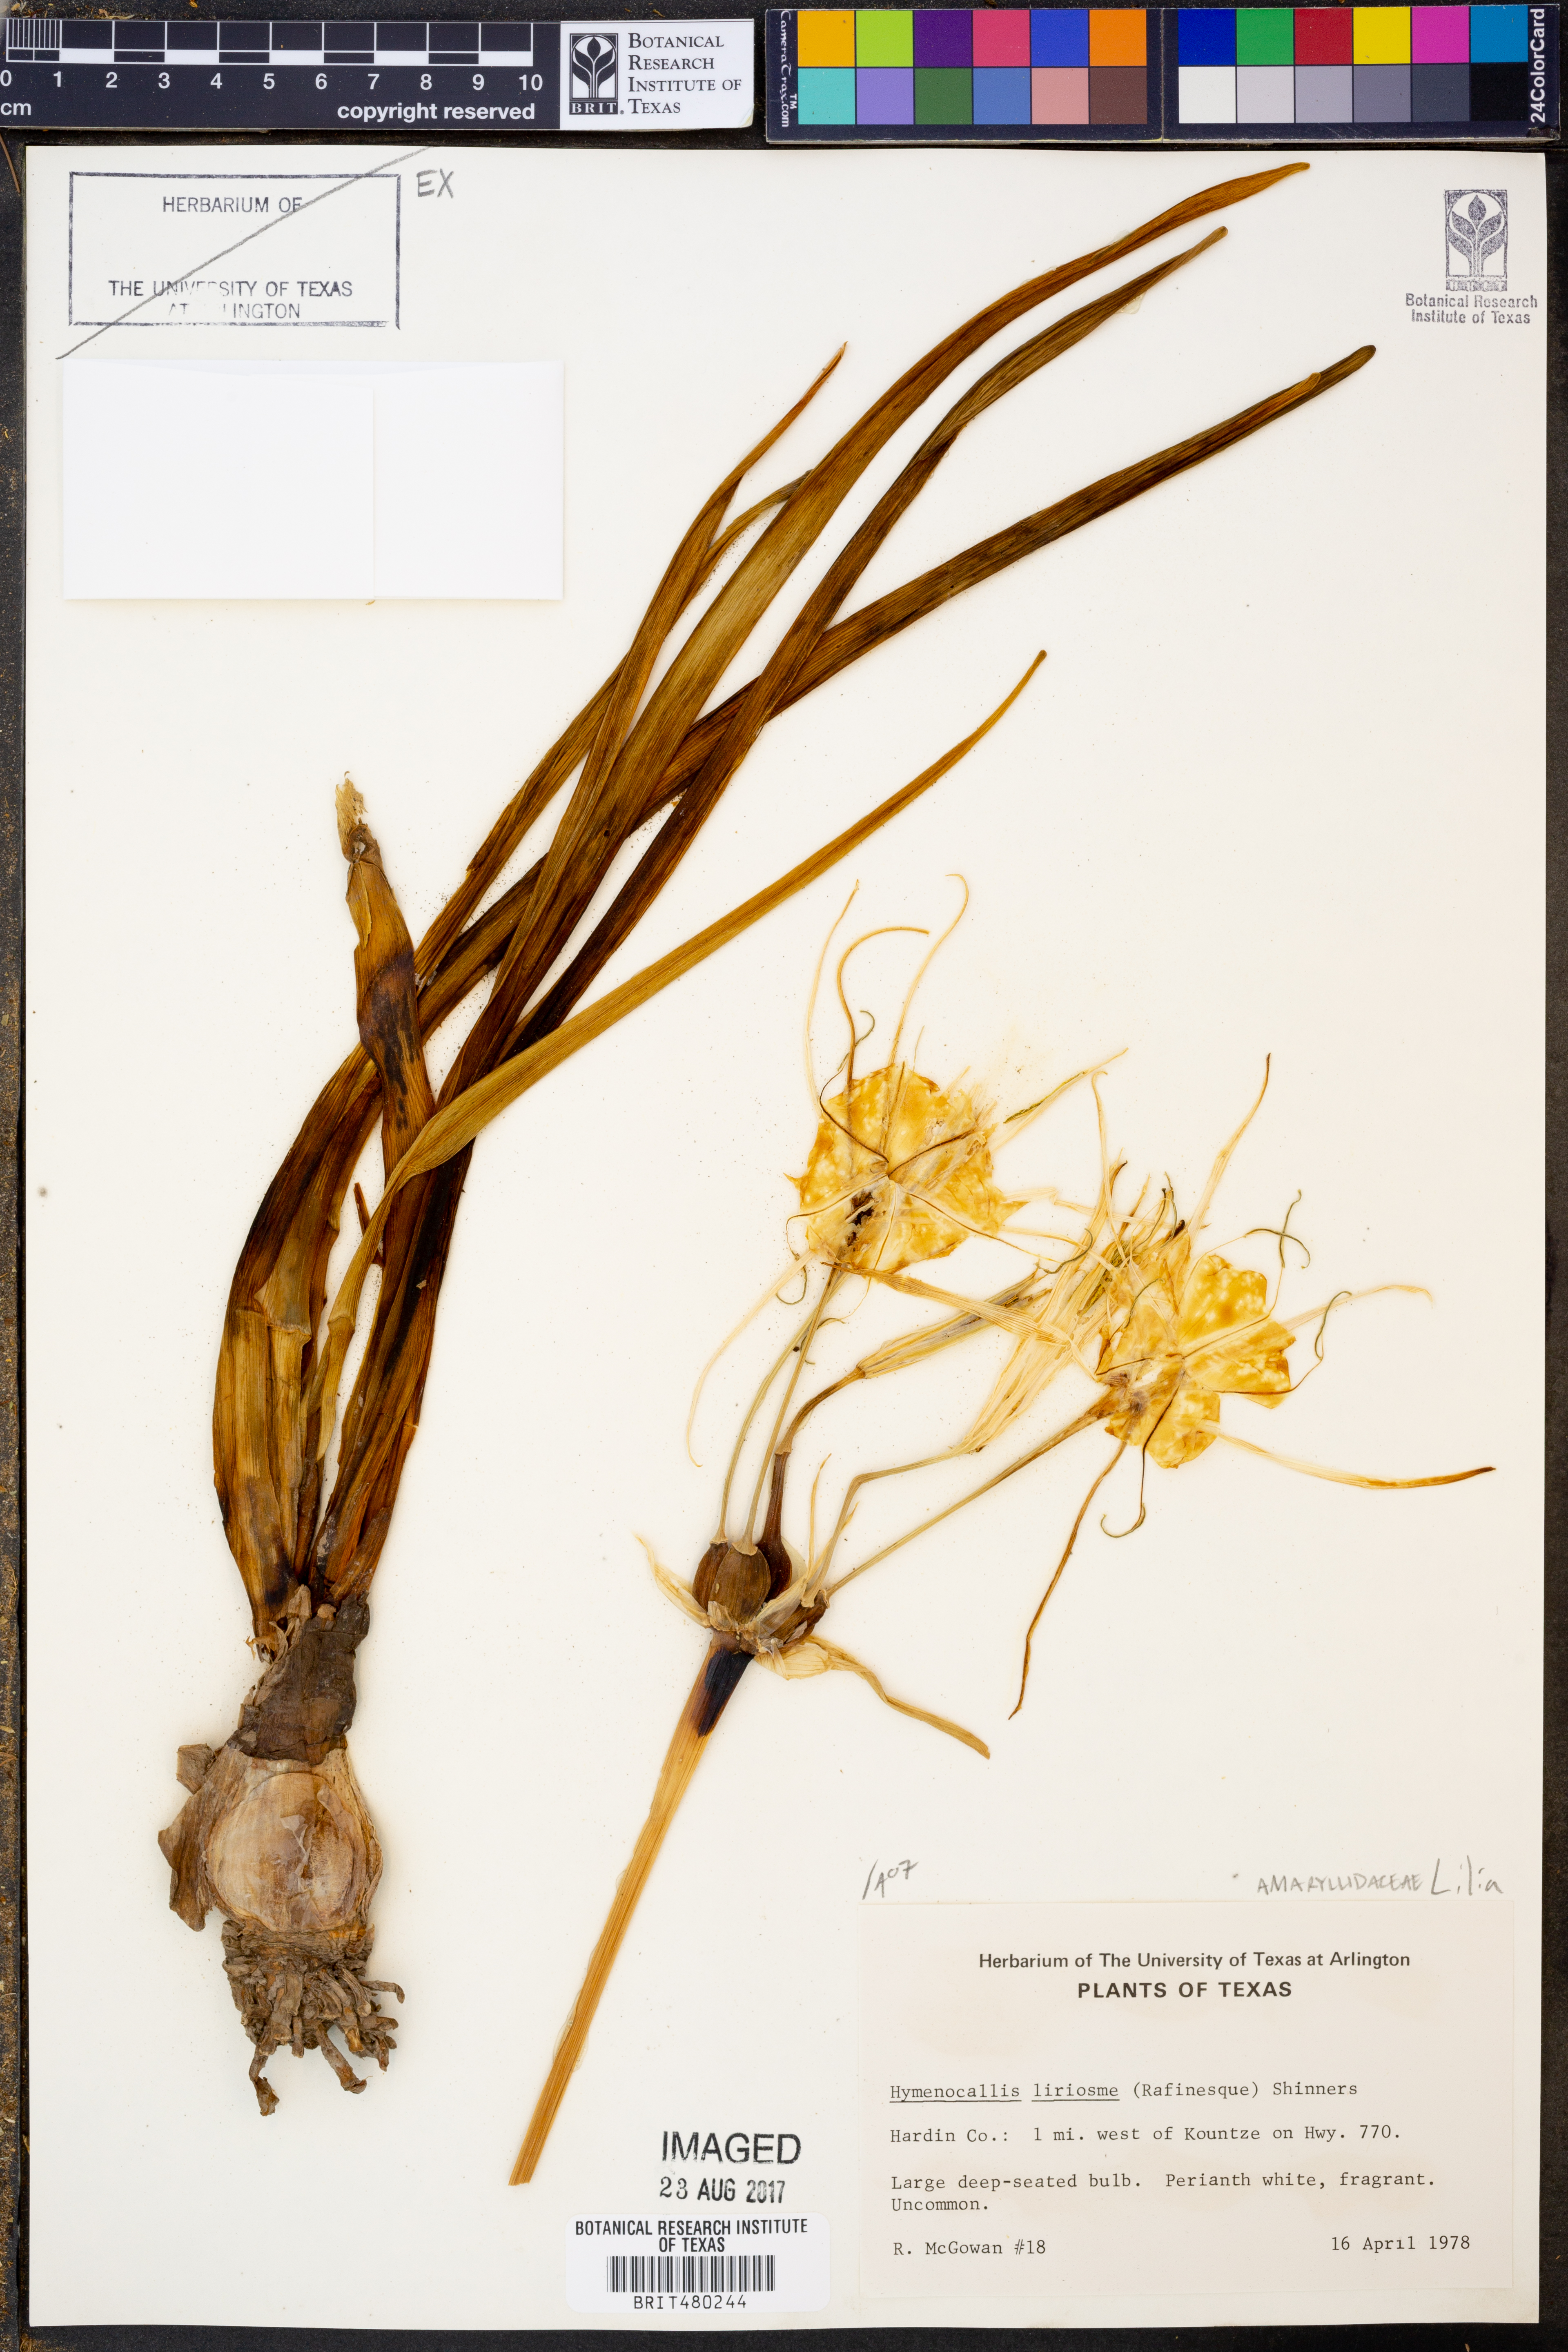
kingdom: Plantae
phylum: Tracheophyta
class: Liliopsida
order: Asparagales
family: Amaryllidaceae
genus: Hymenocallis
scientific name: Hymenocallis liriosme
